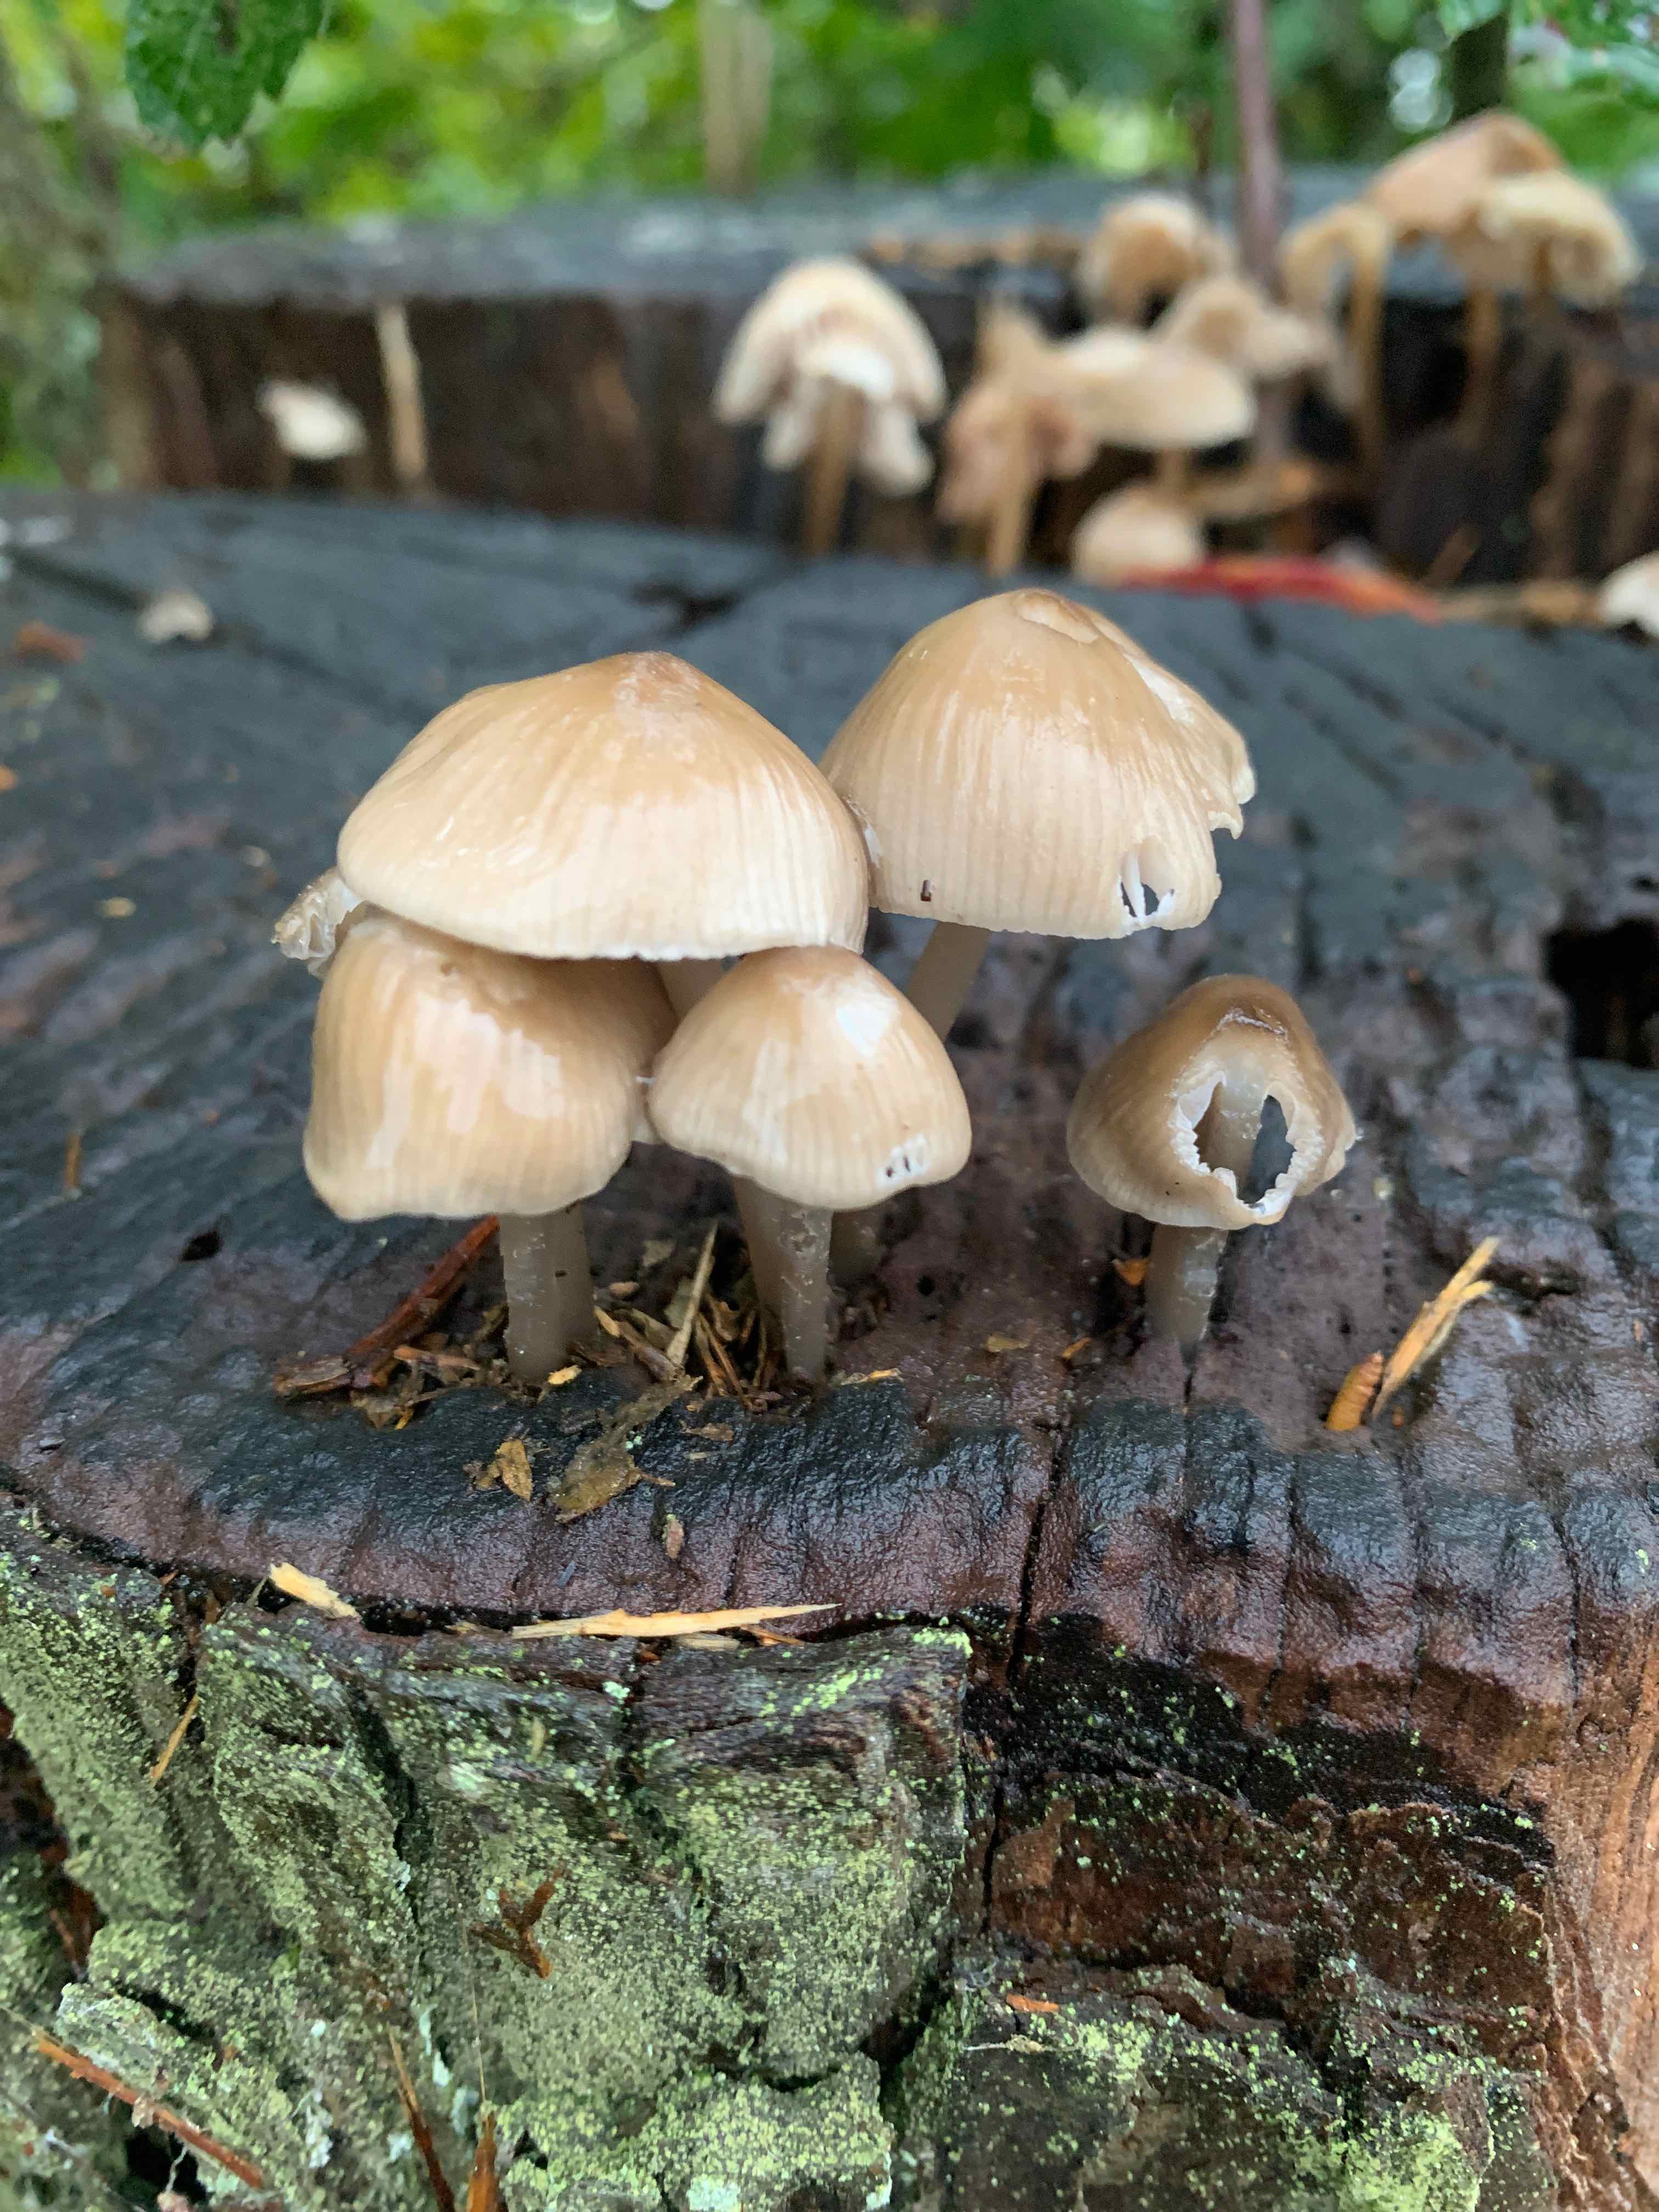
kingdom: Fungi
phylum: Basidiomycota
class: Agaricomycetes
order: Agaricales
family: Mycenaceae
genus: Mycena
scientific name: Mycena galericulata
